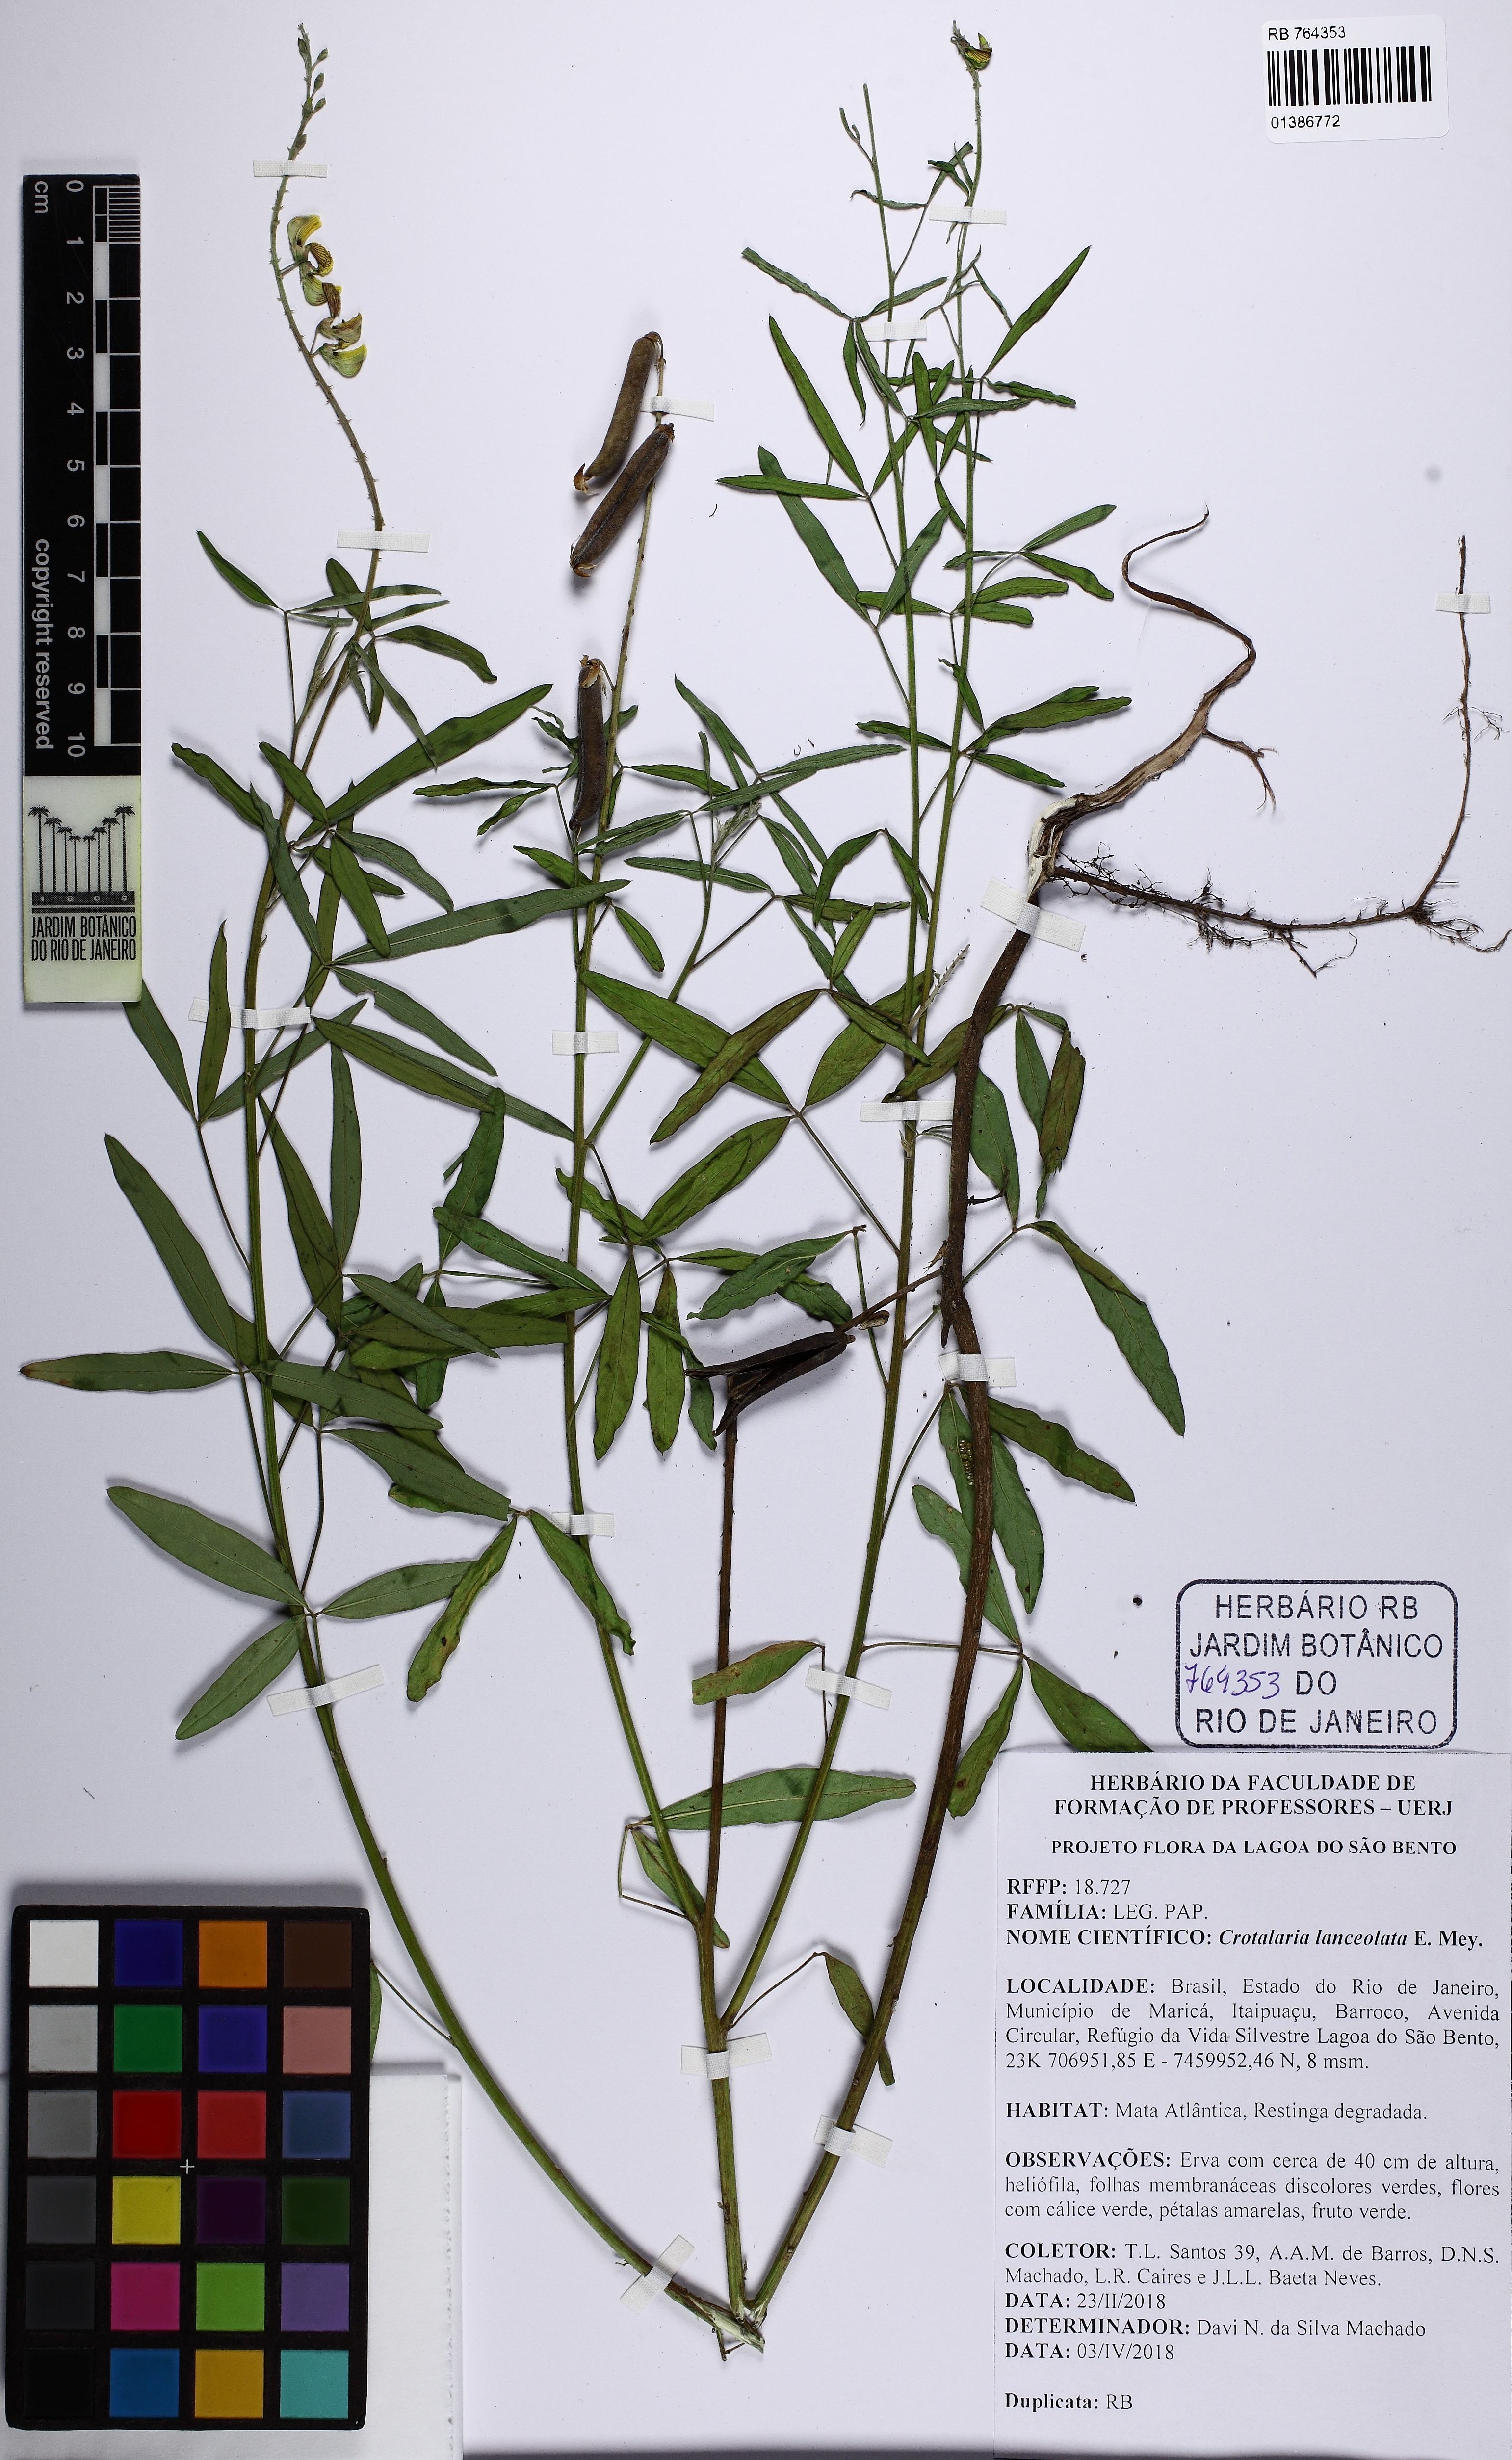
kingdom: Plantae
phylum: Tracheophyta
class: Magnoliopsida
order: Fabales
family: Fabaceae
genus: Crotalaria
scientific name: Crotalaria lanceolata
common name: Lanceleaf rattlebox
